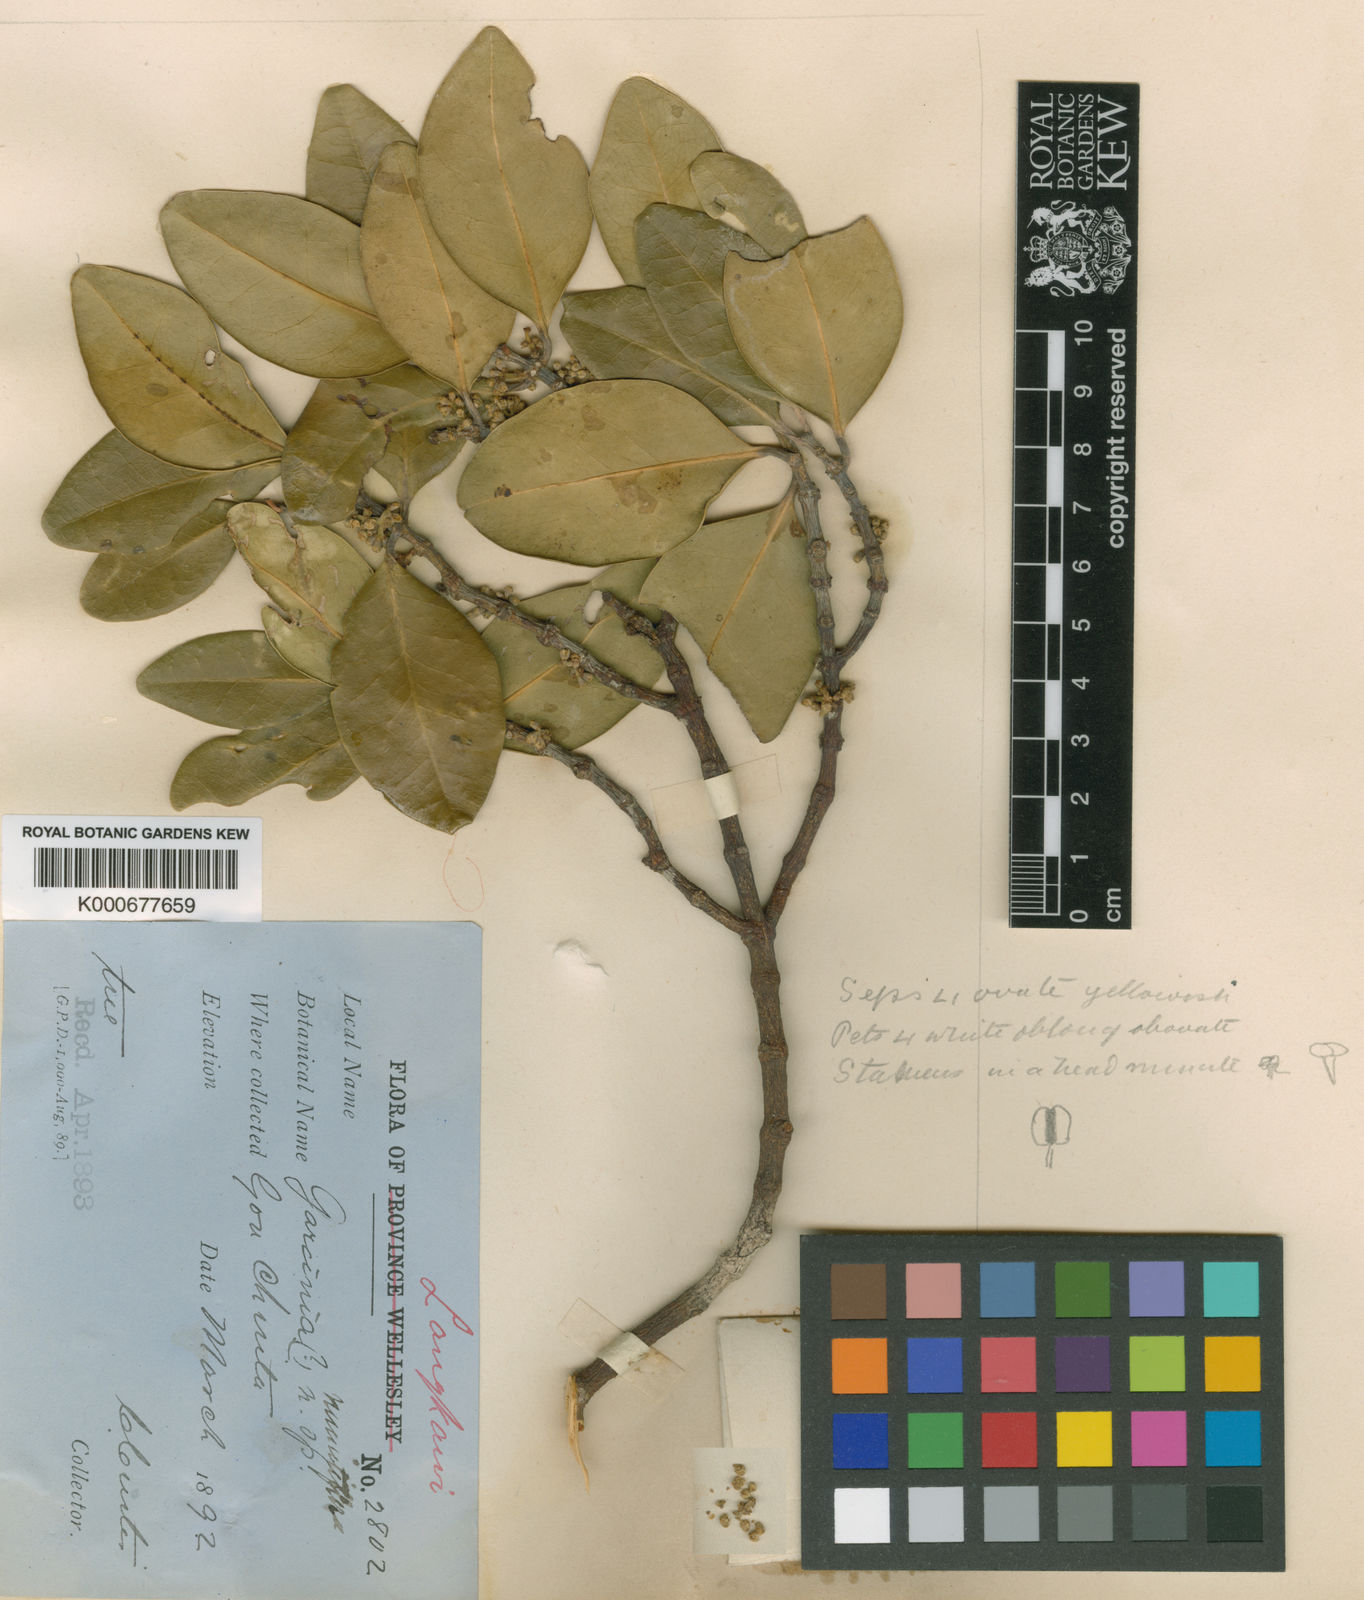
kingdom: Plantae
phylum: Tracheophyta
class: Magnoliopsida
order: Malpighiales
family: Clusiaceae
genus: Garcinia
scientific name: Garcinia minutiflora
